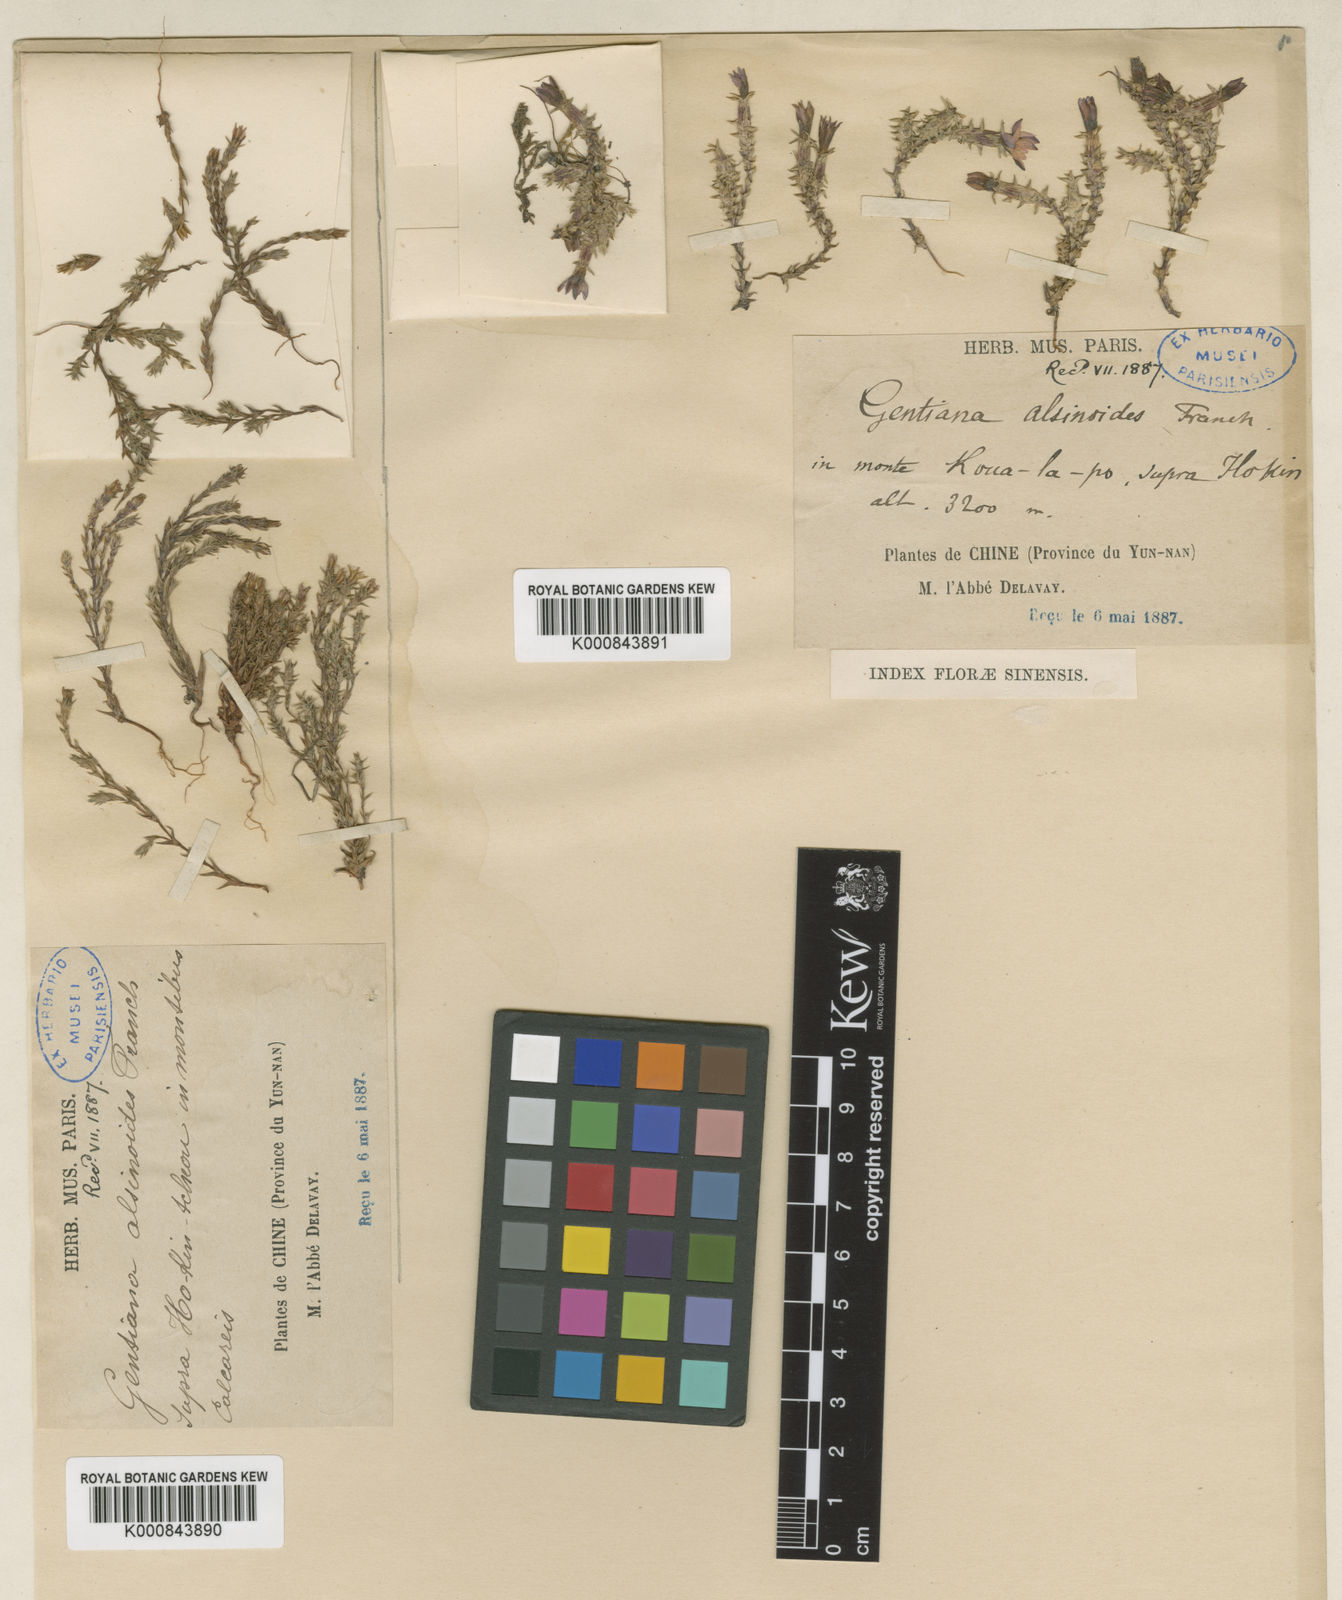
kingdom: Plantae
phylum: Tracheophyta
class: Magnoliopsida
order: Gentianales
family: Gentianaceae
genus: Gentiana
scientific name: Gentiana alsinoides
